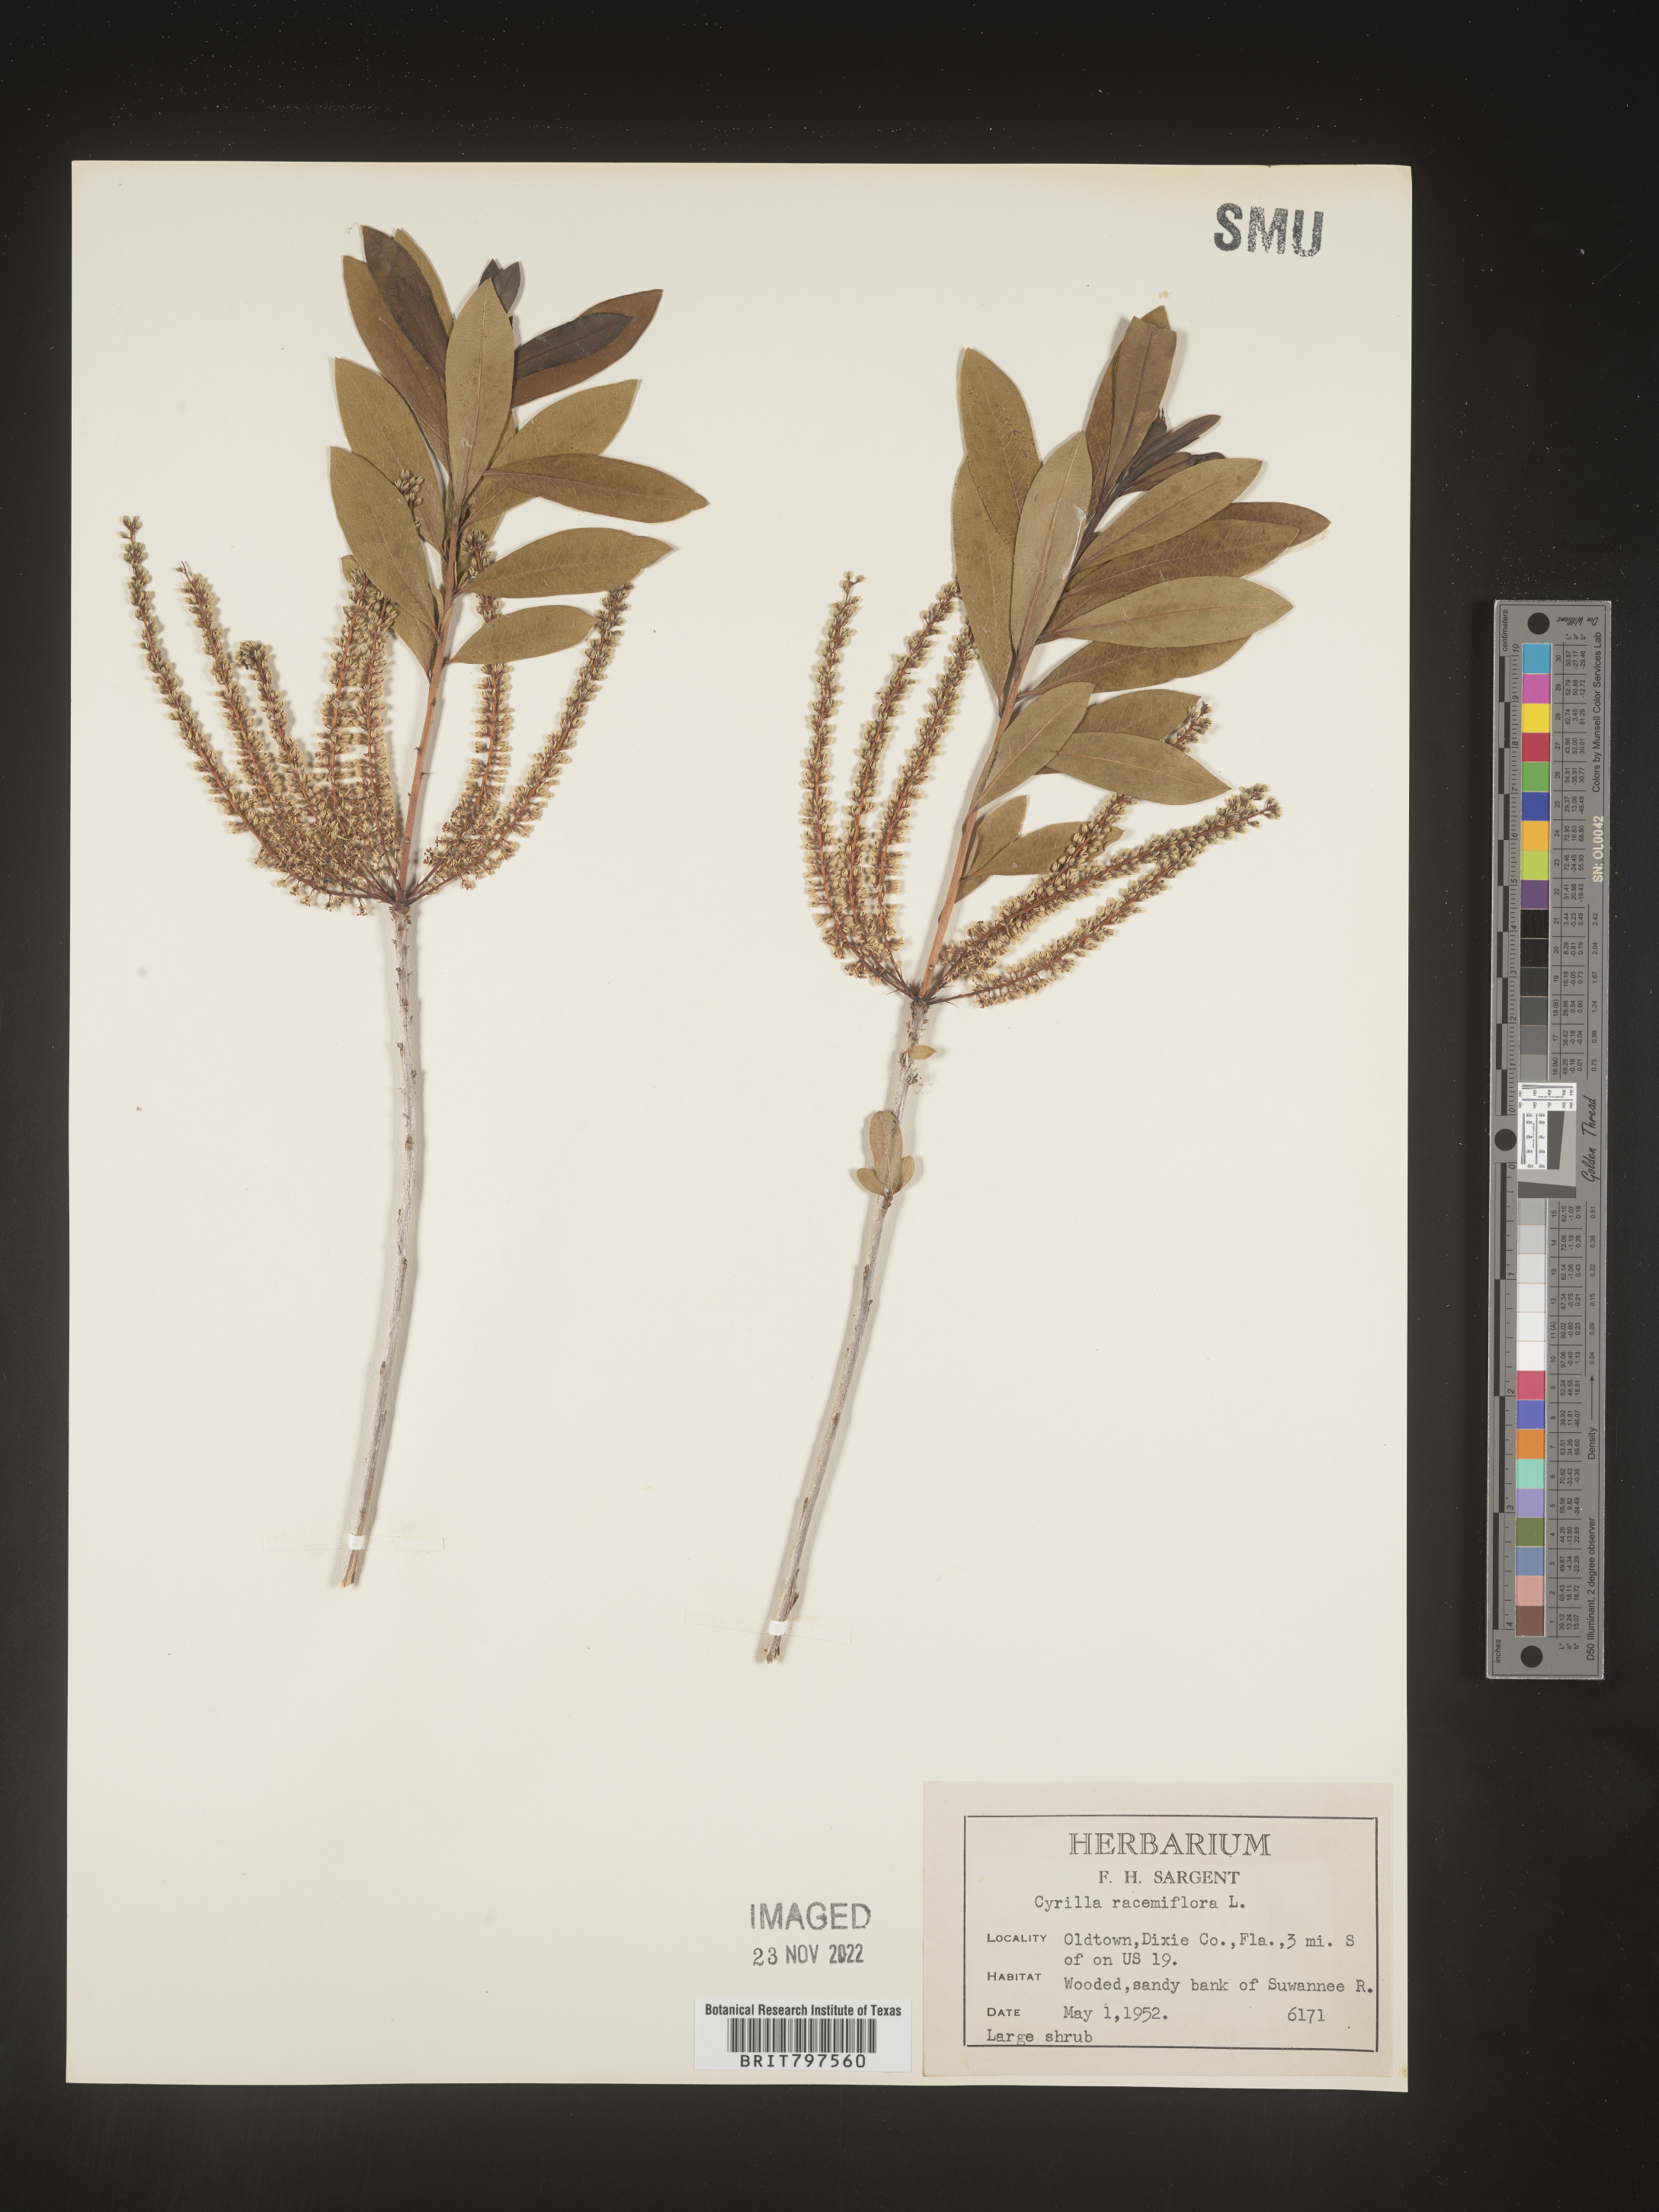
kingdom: Plantae
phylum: Tracheophyta
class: Magnoliopsida
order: Ericales
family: Cyrillaceae
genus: Cyrilla
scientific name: Cyrilla racemiflora
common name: Black titi
